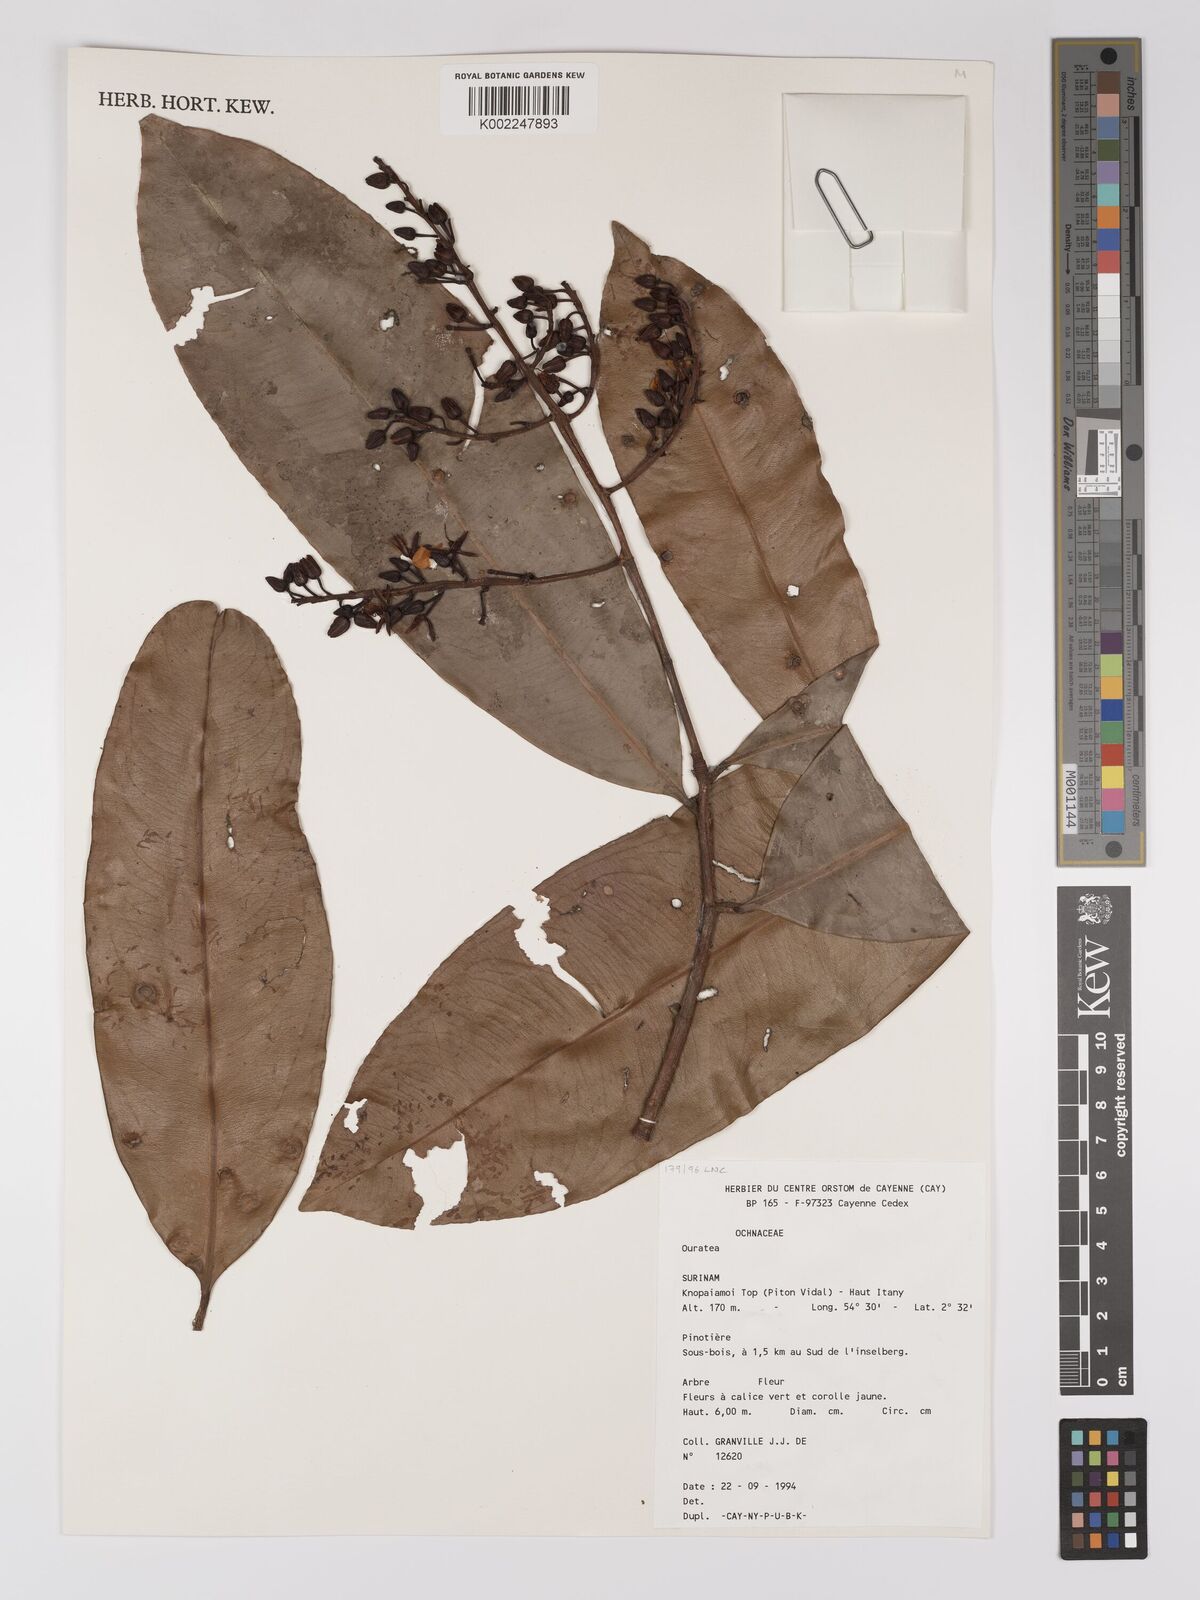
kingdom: Plantae
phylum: Tracheophyta
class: Magnoliopsida
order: Malpighiales
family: Ochnaceae
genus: Ouratea
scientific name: Ouratea
